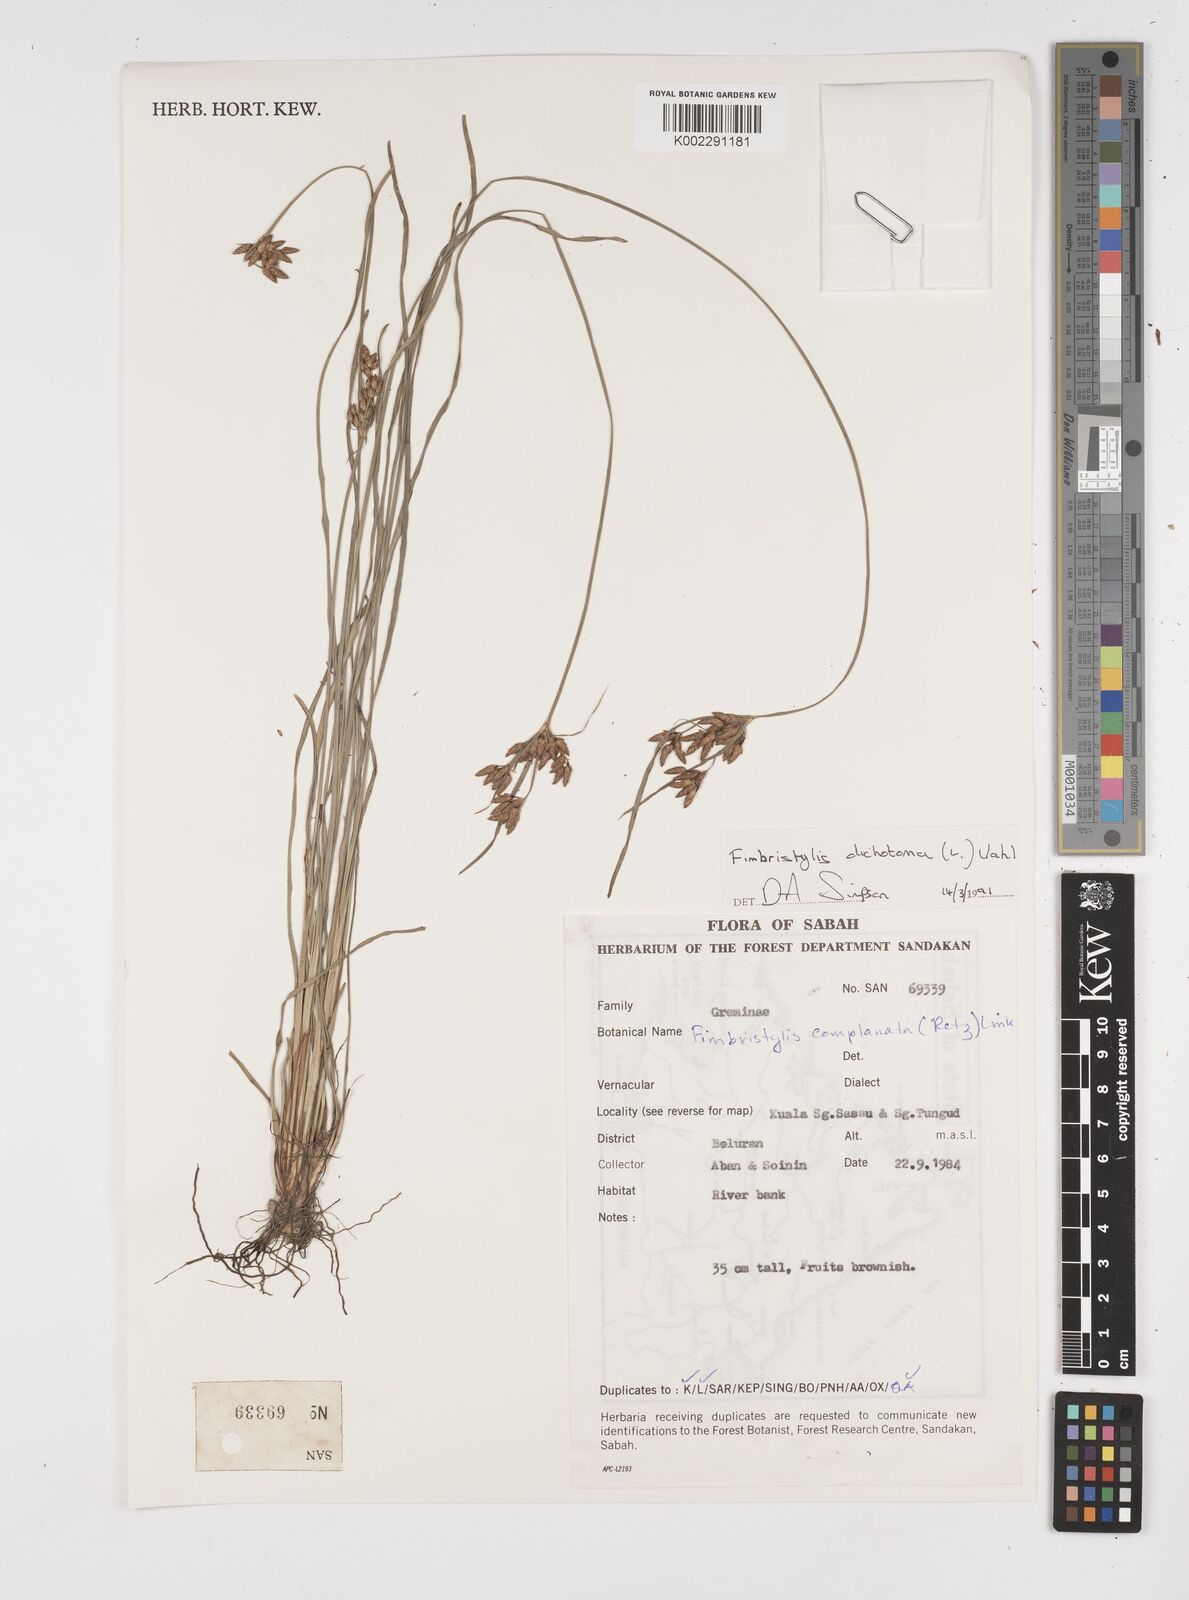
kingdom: Plantae
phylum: Tracheophyta
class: Liliopsida
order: Poales
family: Cyperaceae
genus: Fimbristylis
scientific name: Fimbristylis dichotoma
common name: Forked fimbry
